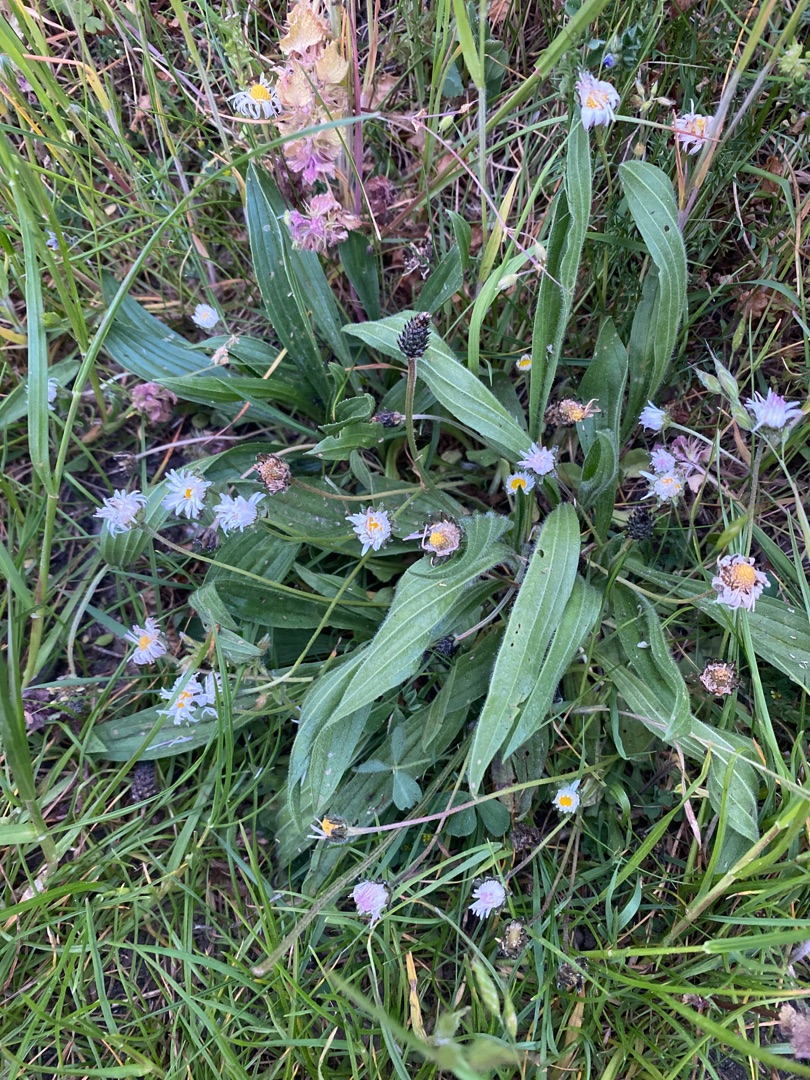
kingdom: Plantae
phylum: Tracheophyta
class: Magnoliopsida
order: Lamiales
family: Plantaginaceae
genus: Plantago
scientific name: Plantago lanceolata
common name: Lancet-vejbred
